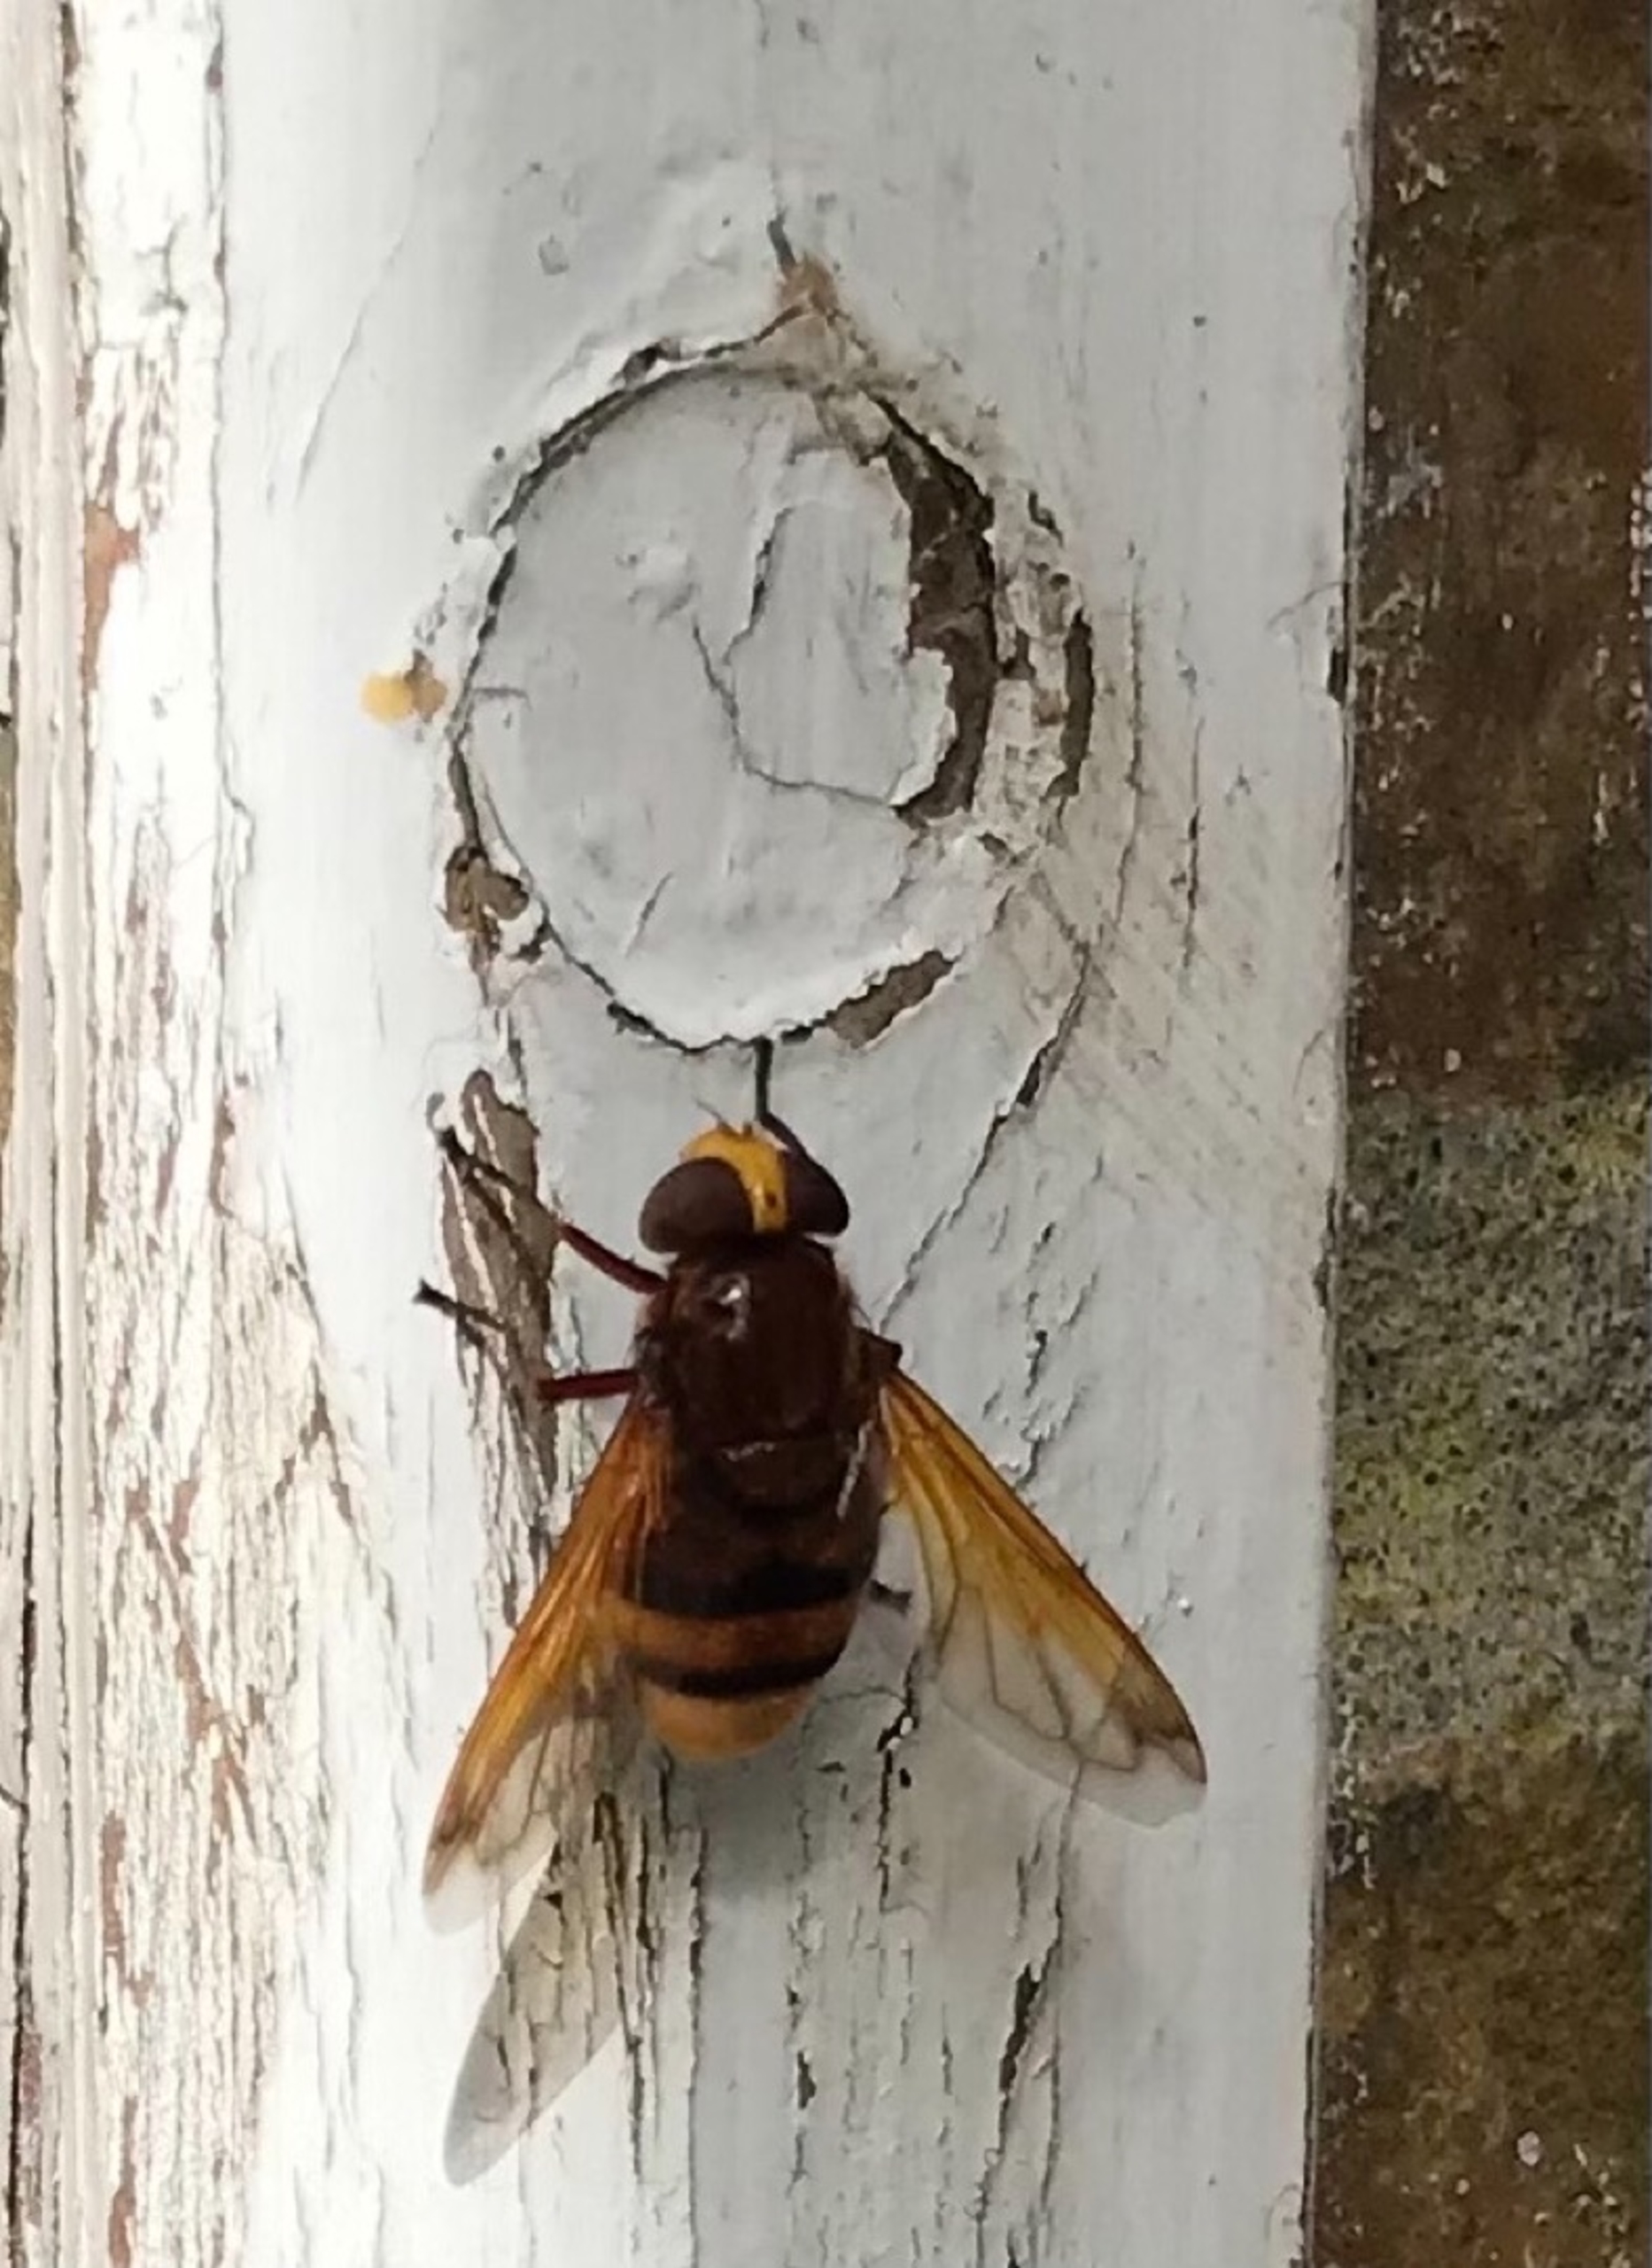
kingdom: Animalia
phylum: Arthropoda
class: Insecta
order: Diptera
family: Syrphidae
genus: Volucella
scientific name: Volucella zonaria
